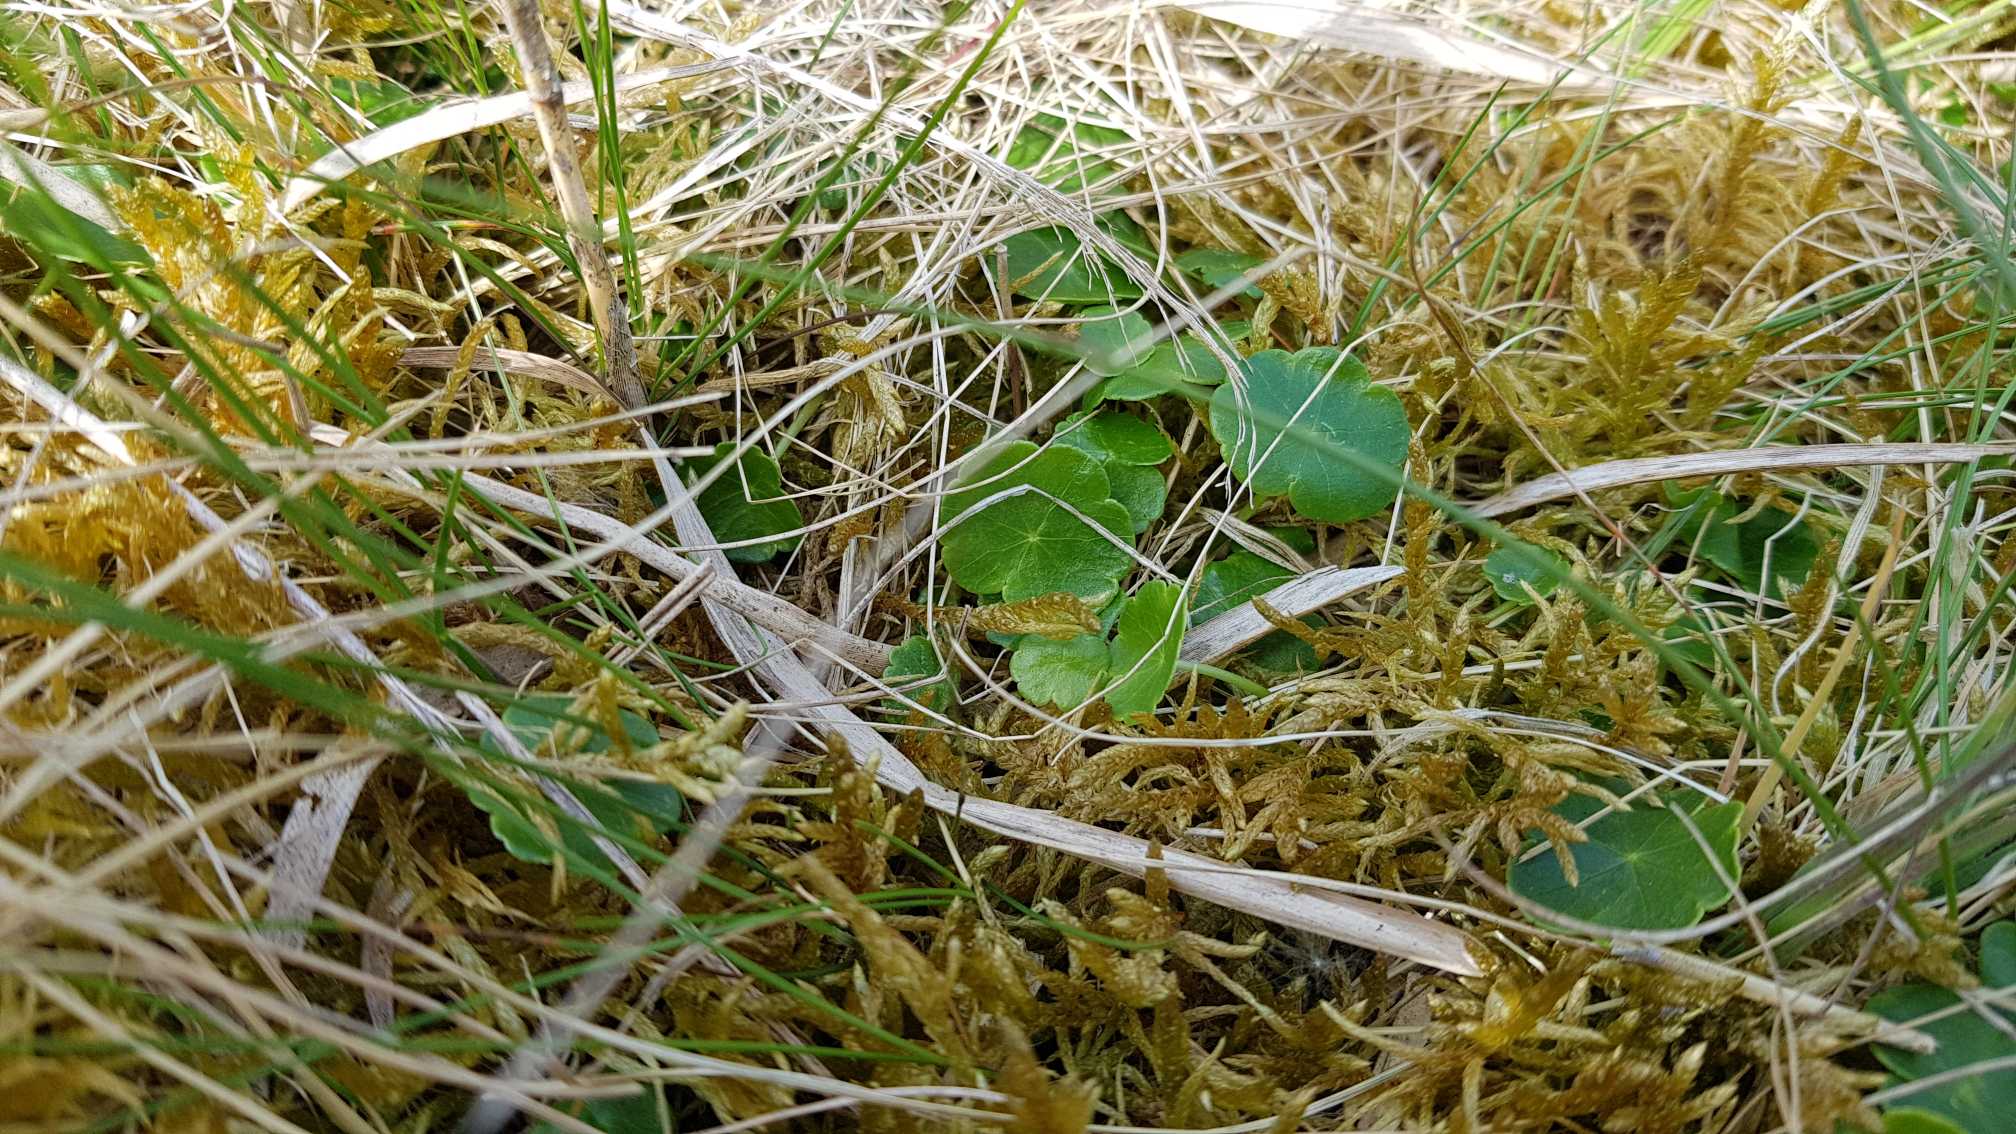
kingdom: Plantae
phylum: Tracheophyta
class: Magnoliopsida
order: Apiales
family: Araliaceae
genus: Hydrocotyle
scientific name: Hydrocotyle vulgaris
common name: Vandnavle
